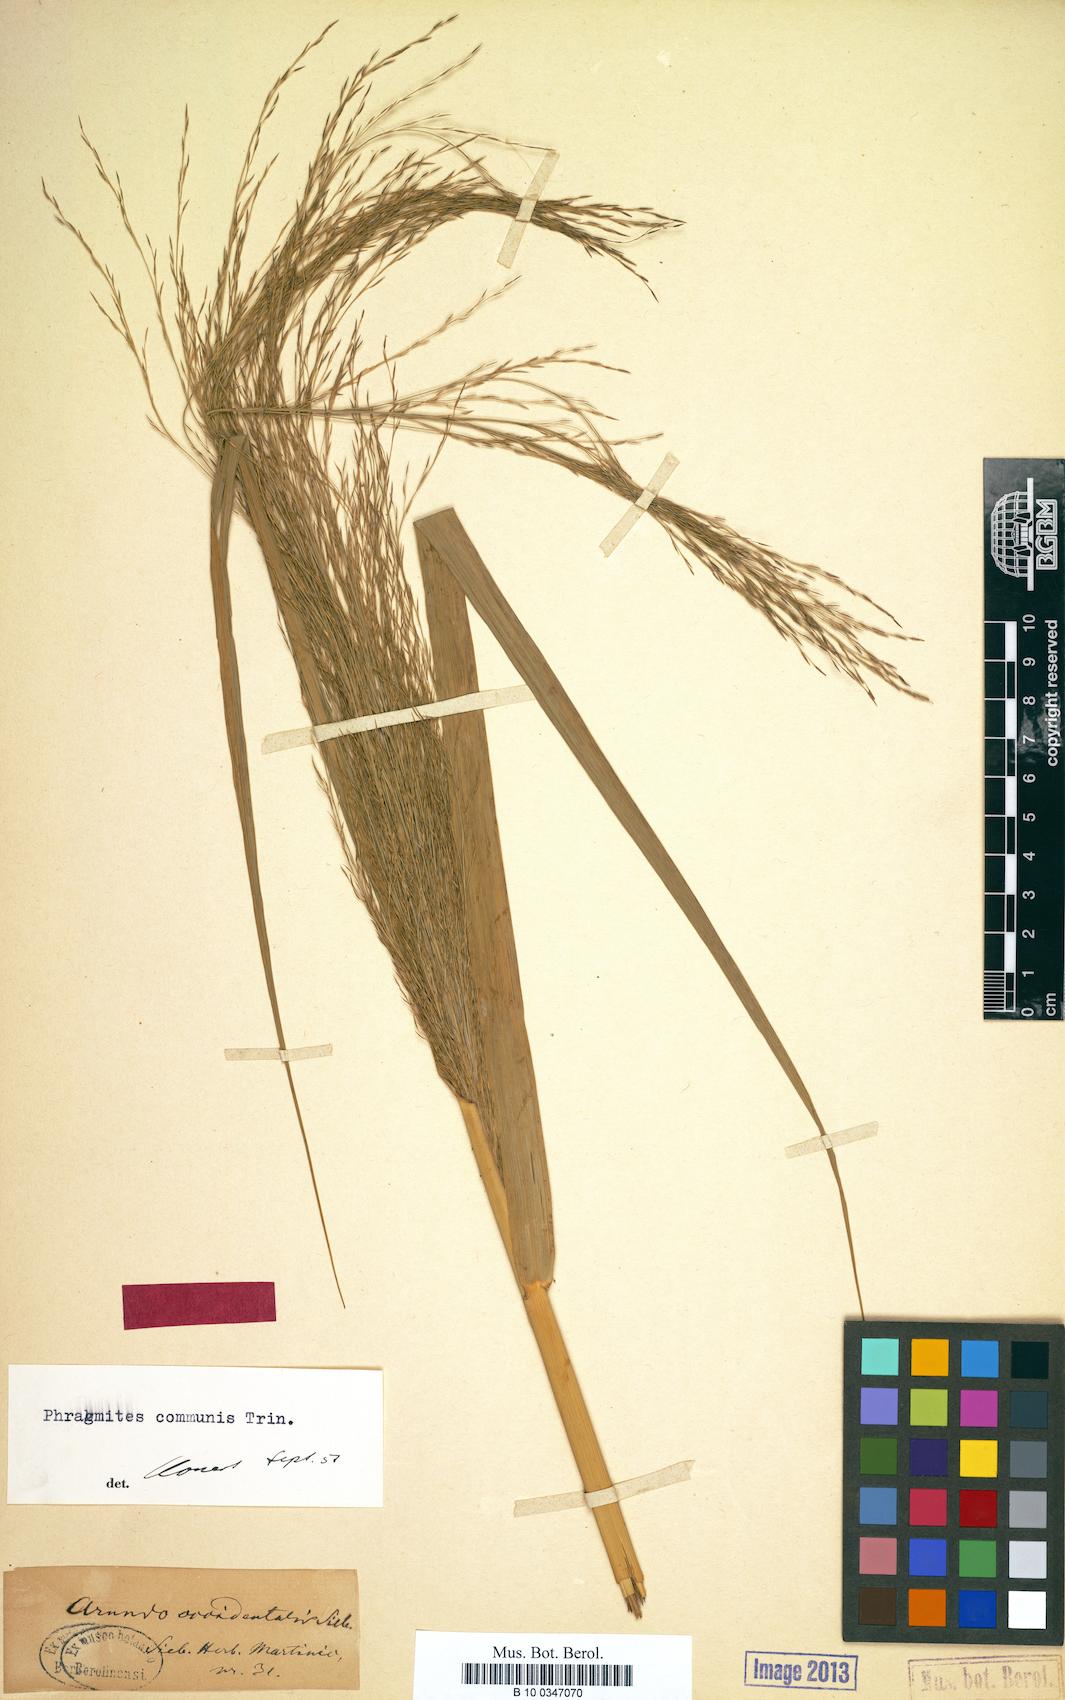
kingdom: Plantae
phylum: Tracheophyta
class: Liliopsida
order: Poales
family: Poaceae
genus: Phragmites
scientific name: Phragmites australis
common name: Common reed
